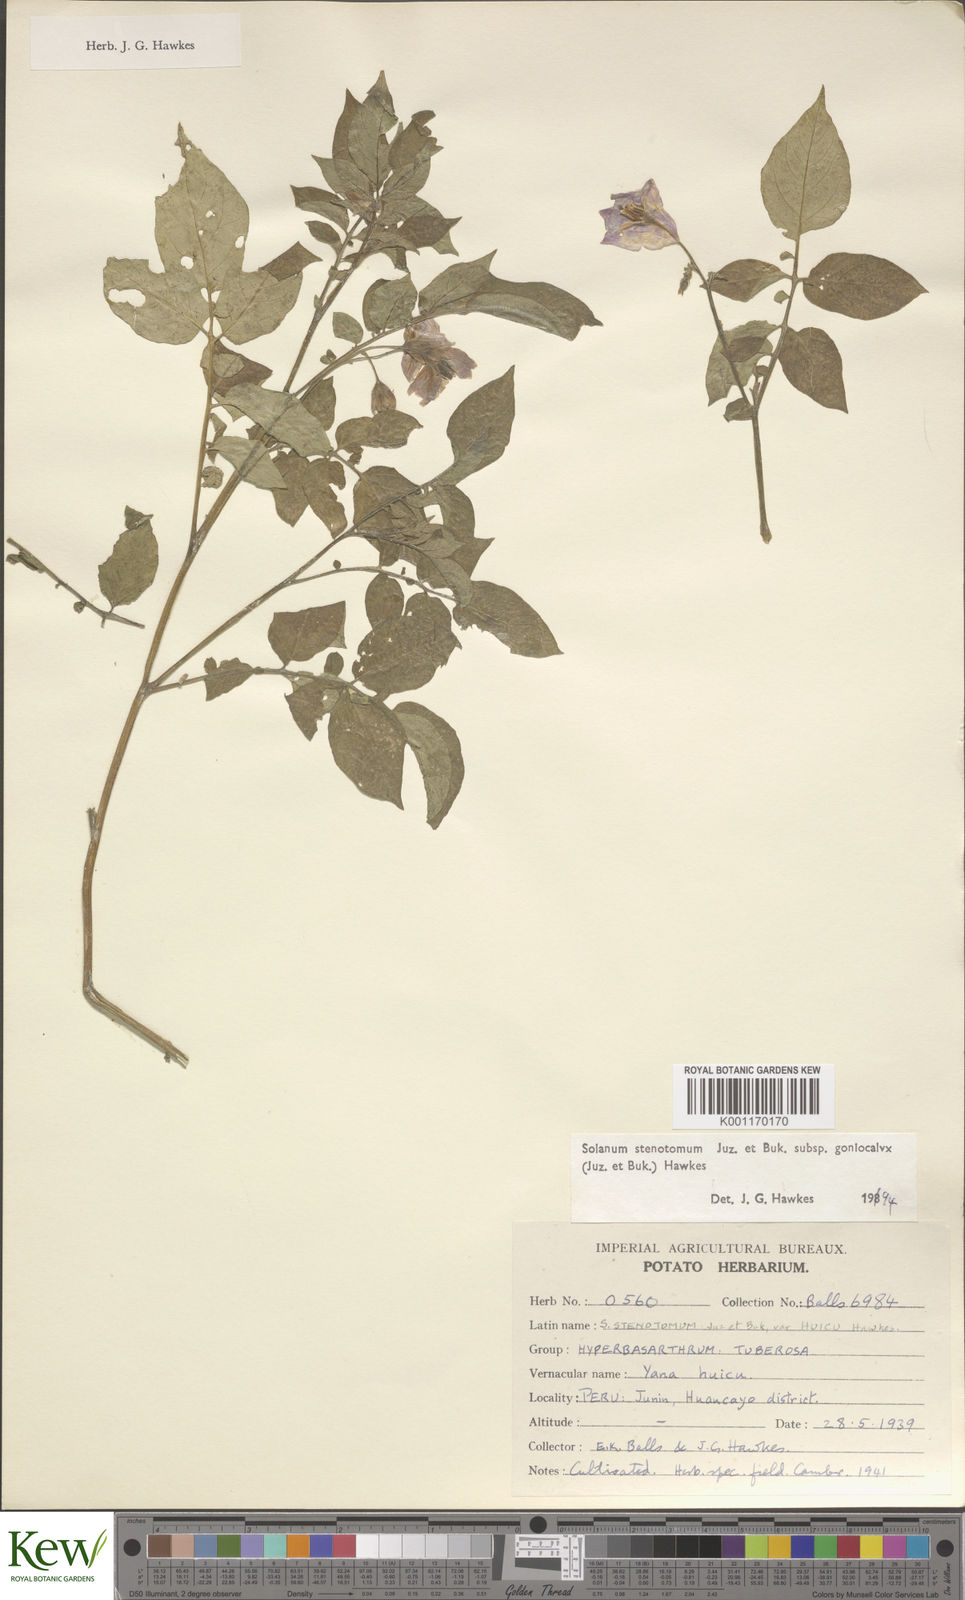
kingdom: Plantae
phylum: Tracheophyta
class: Magnoliopsida
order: Solanales
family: Solanaceae
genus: Solanum
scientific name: Solanum tuberosum
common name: Potato
